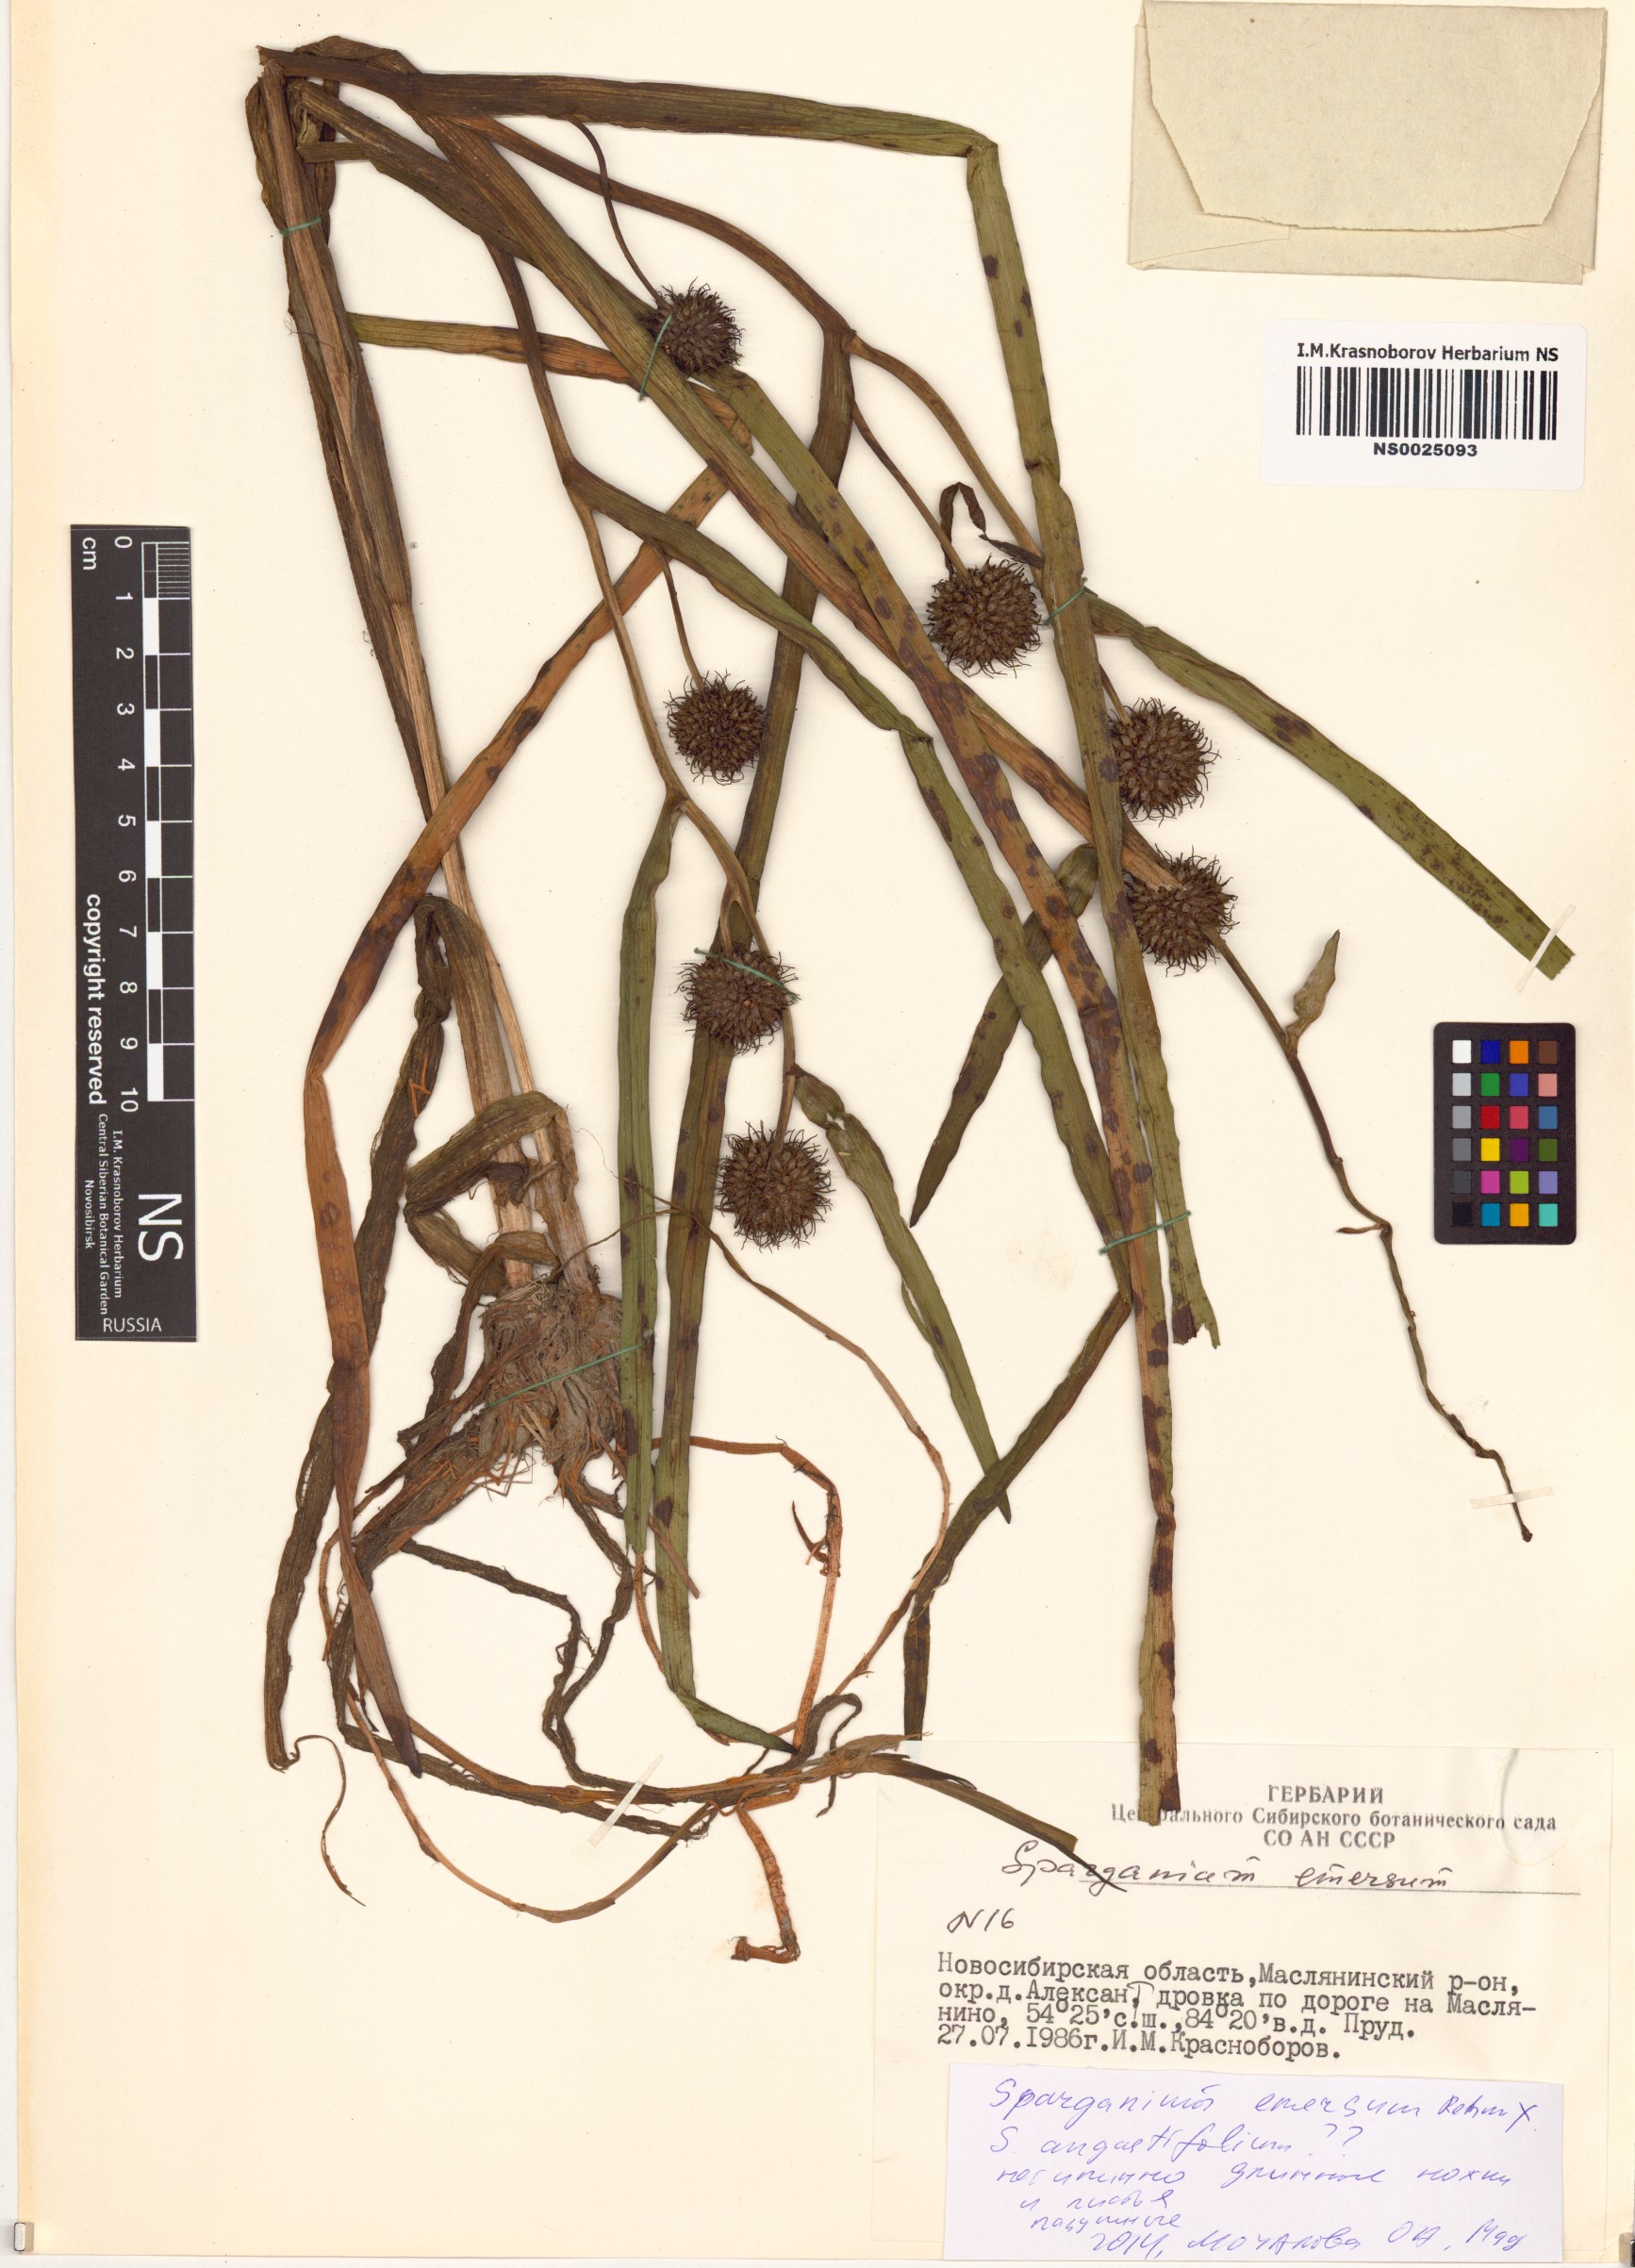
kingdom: Plantae
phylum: Tracheophyta
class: Liliopsida
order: Poales
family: Typhaceae
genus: Sparganium
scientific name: Sparganium emersum
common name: Unbranched bur-reed
